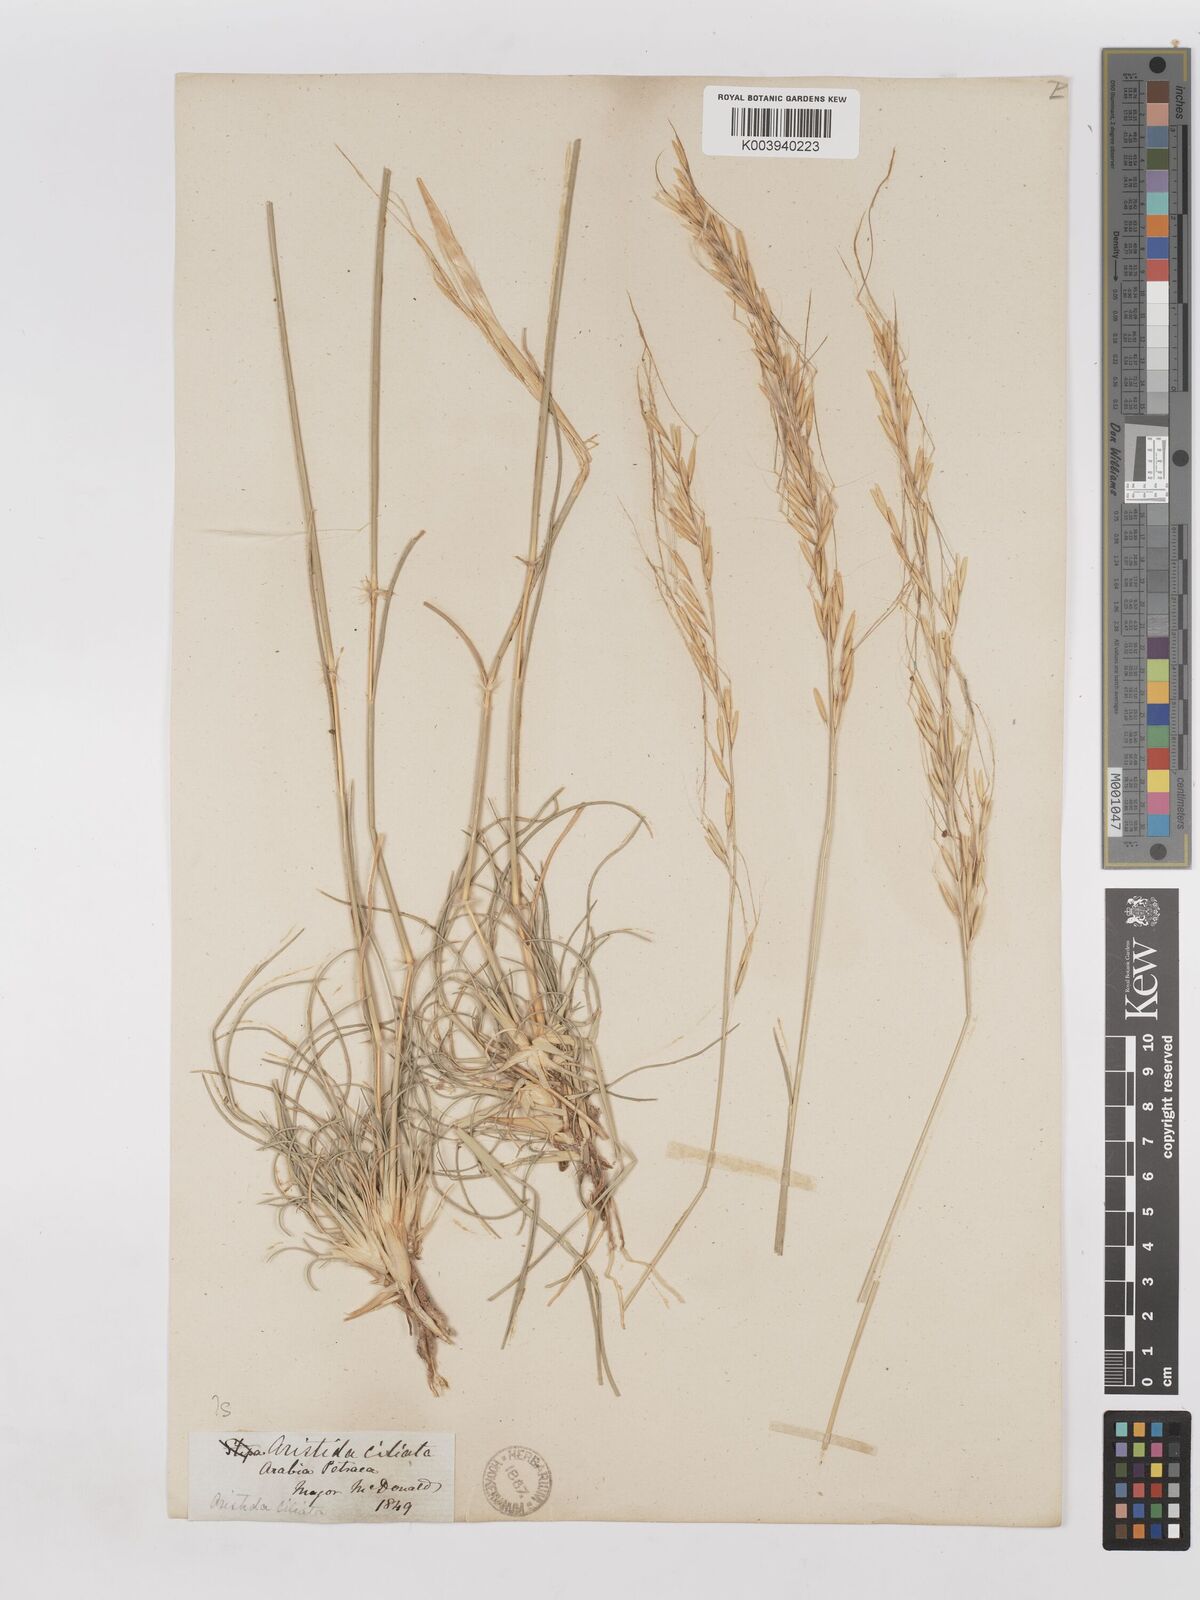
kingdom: Plantae
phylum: Tracheophyta
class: Liliopsida
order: Poales
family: Poaceae
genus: Stipagrostis
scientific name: Stipagrostis ciliata
